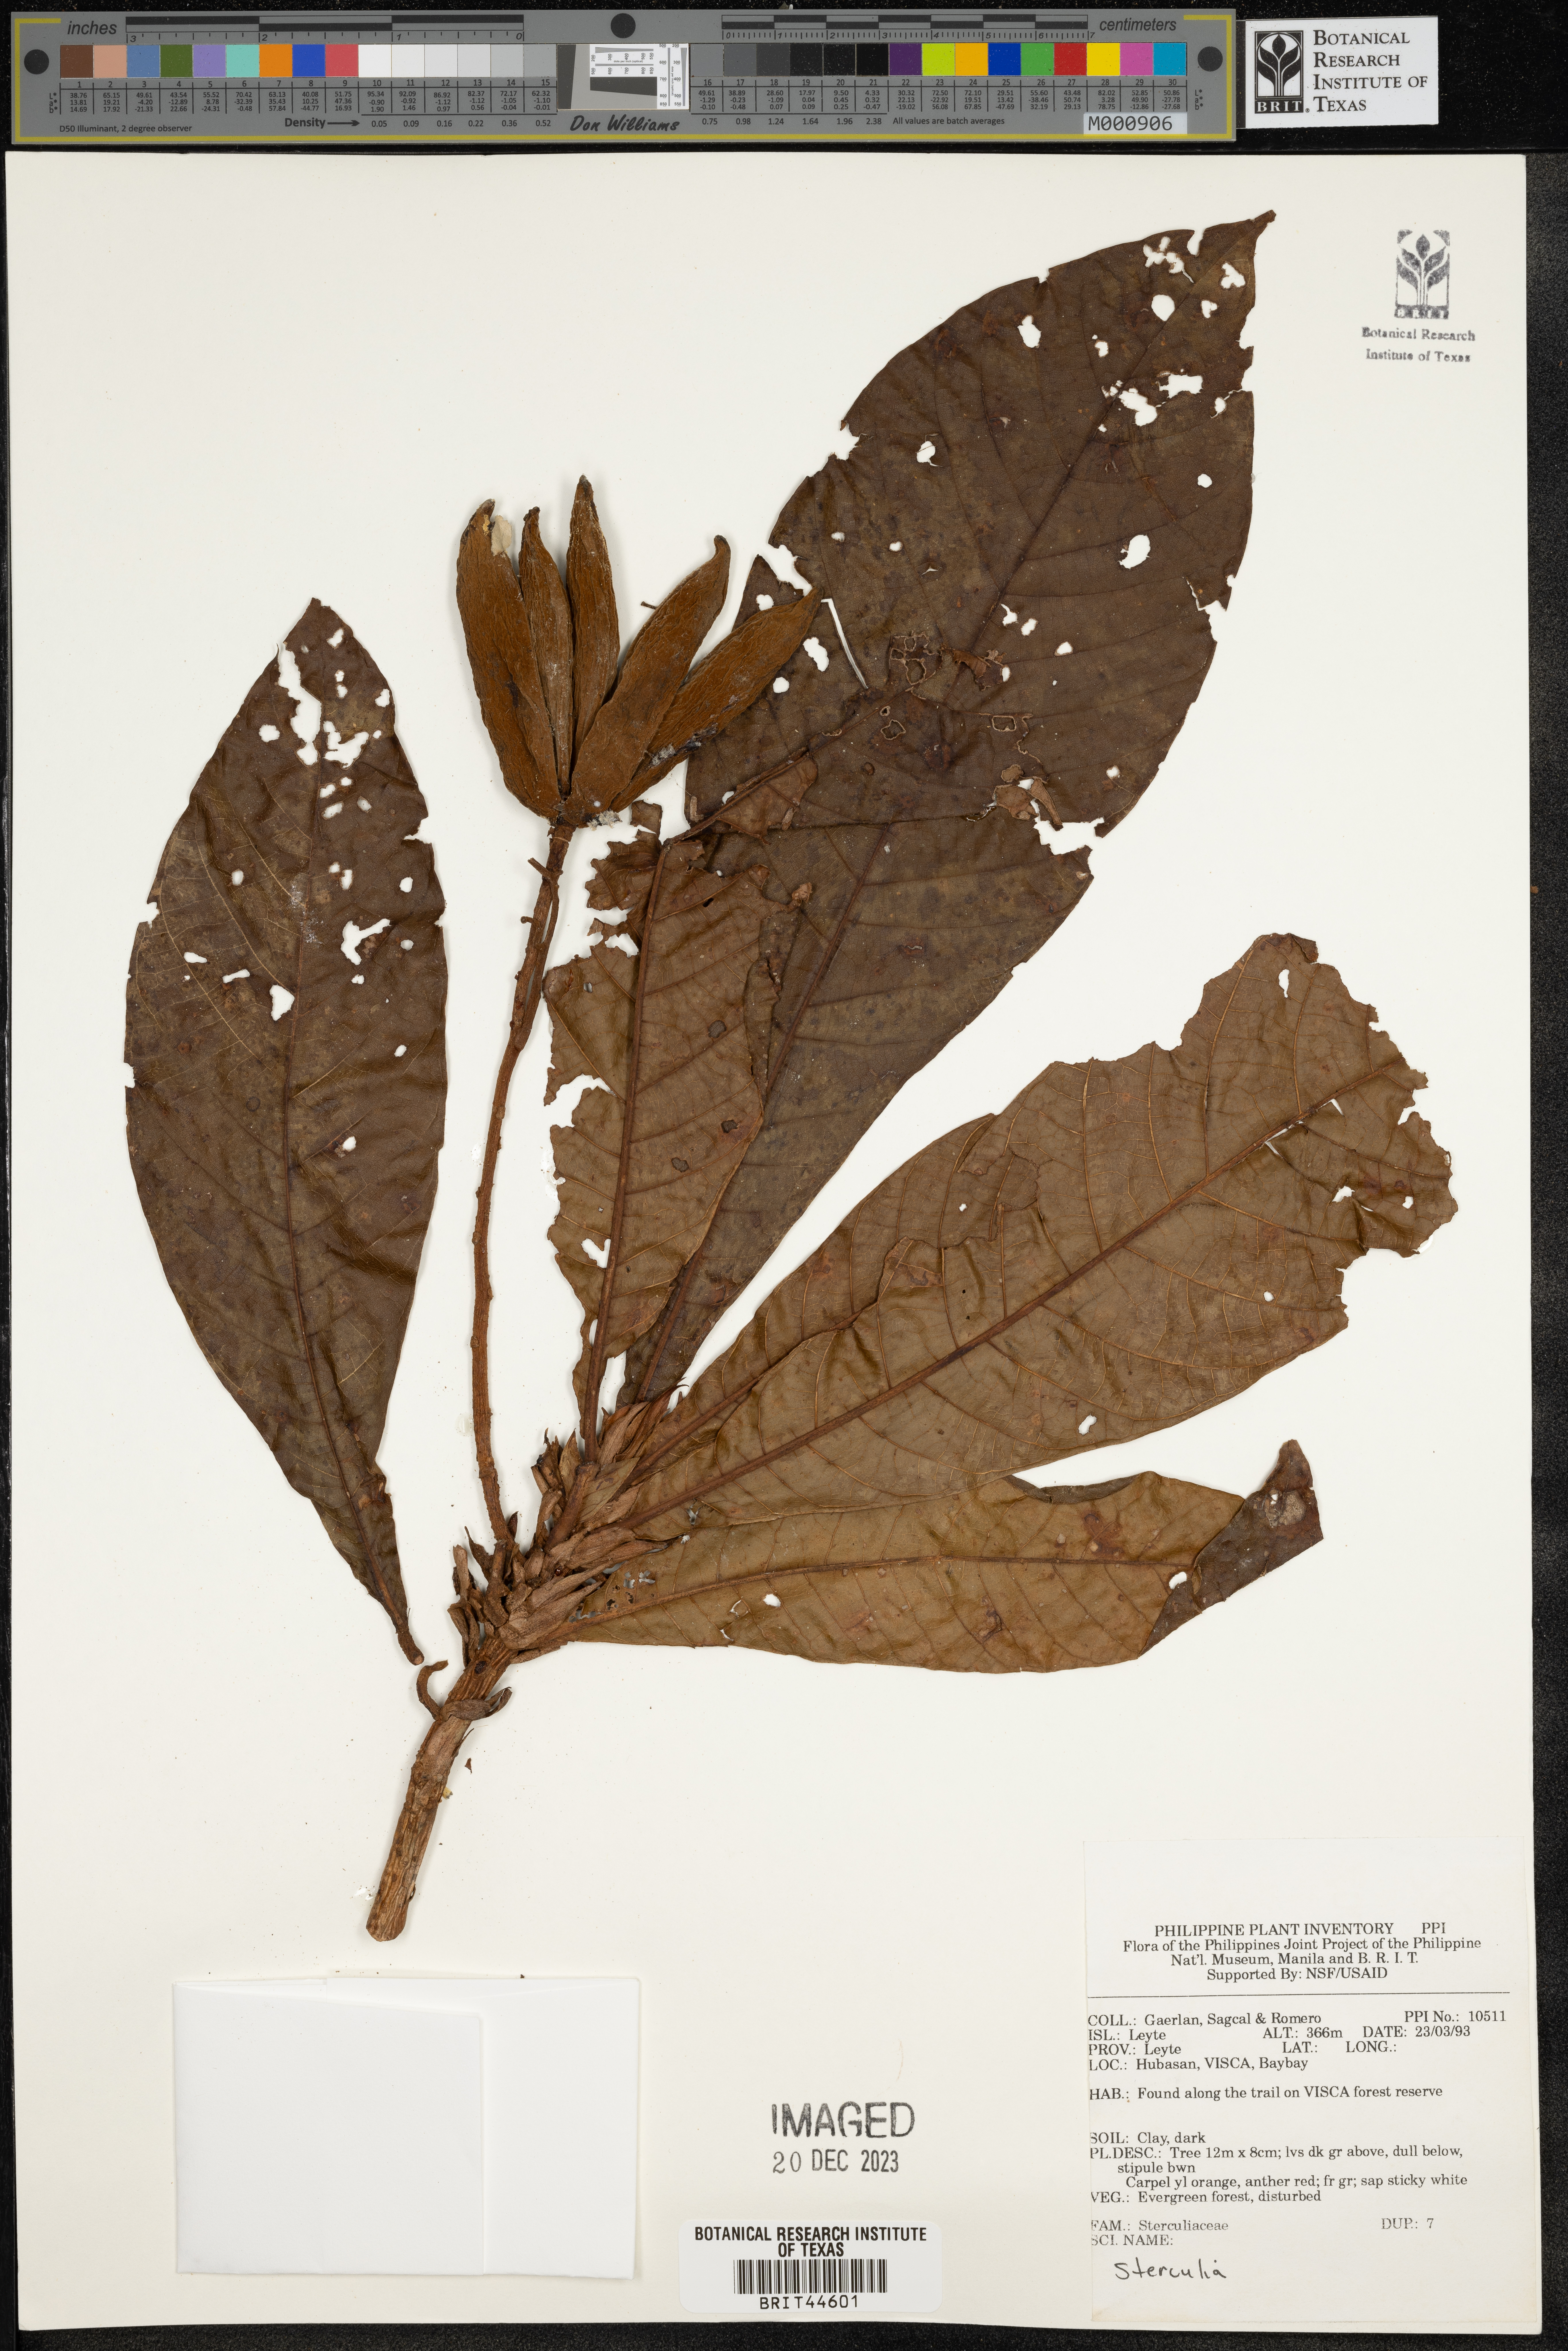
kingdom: Plantae
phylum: Tracheophyta
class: Magnoliopsida
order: Malvales
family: Malvaceae
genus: Sterculia
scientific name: Sterculia
